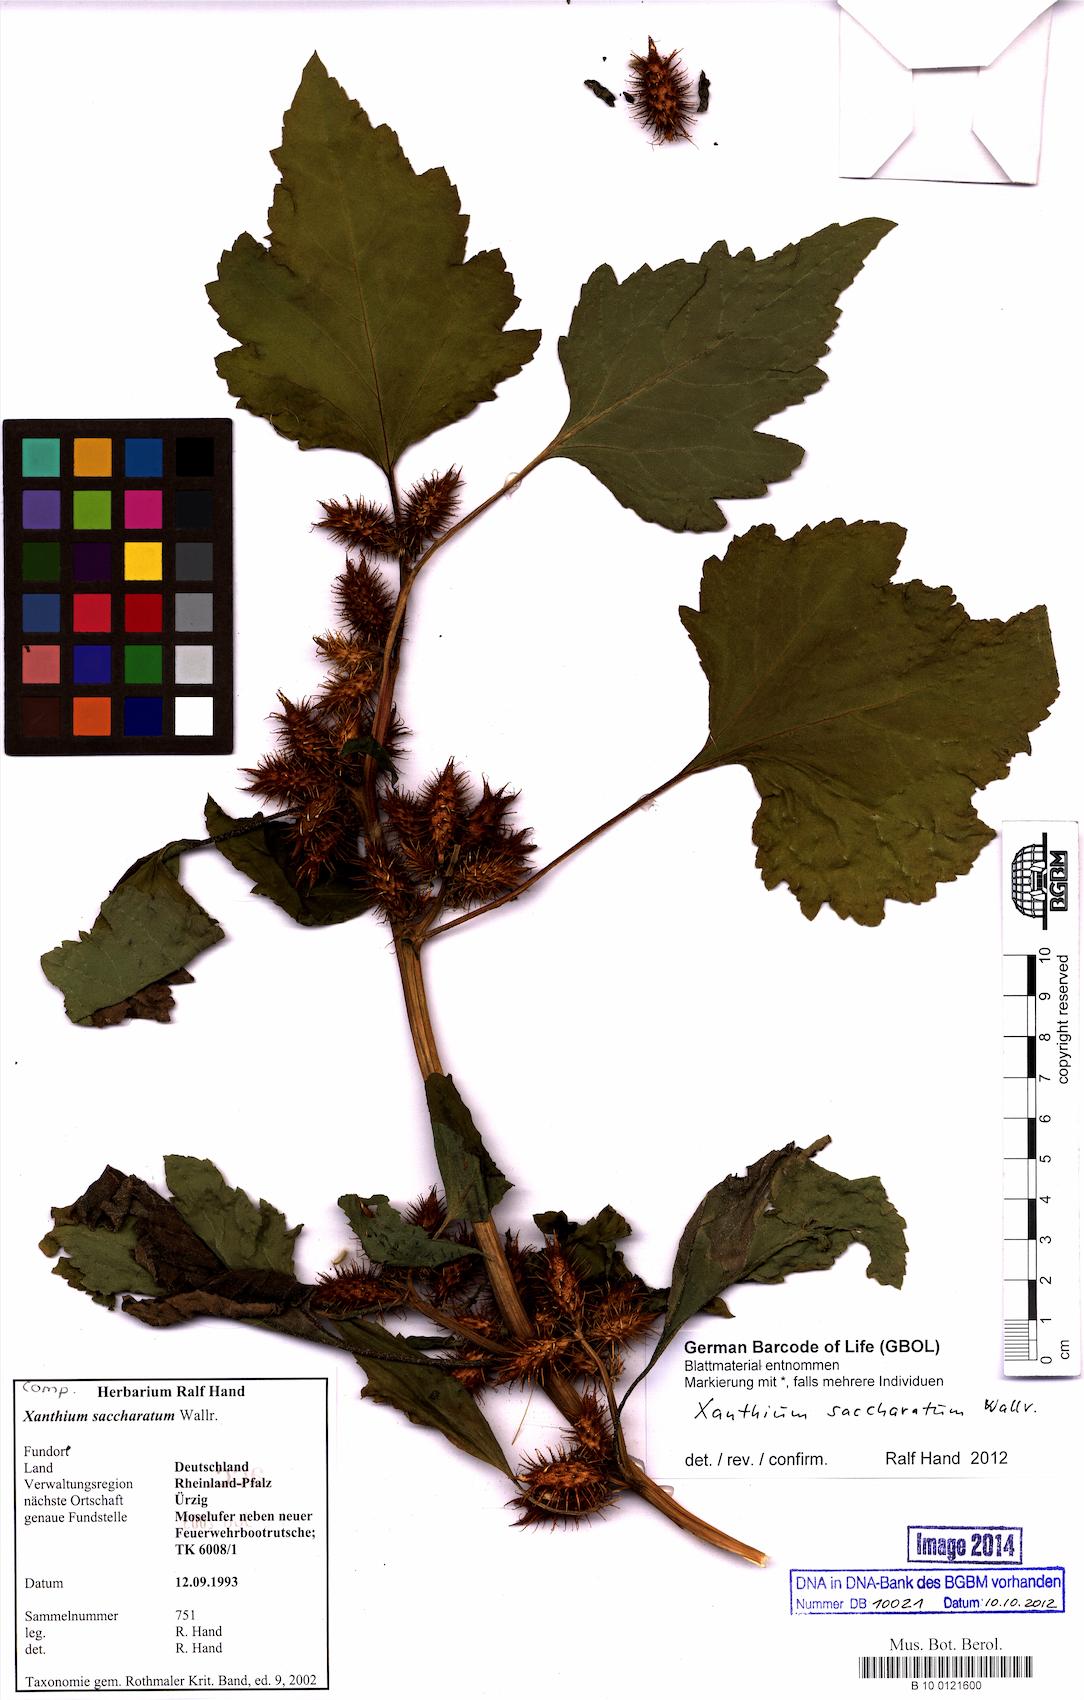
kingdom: Plantae
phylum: Tracheophyta
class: Magnoliopsida
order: Asterales
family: Asteraceae
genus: Xanthium
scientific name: Xanthium orientale
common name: Californian burr
